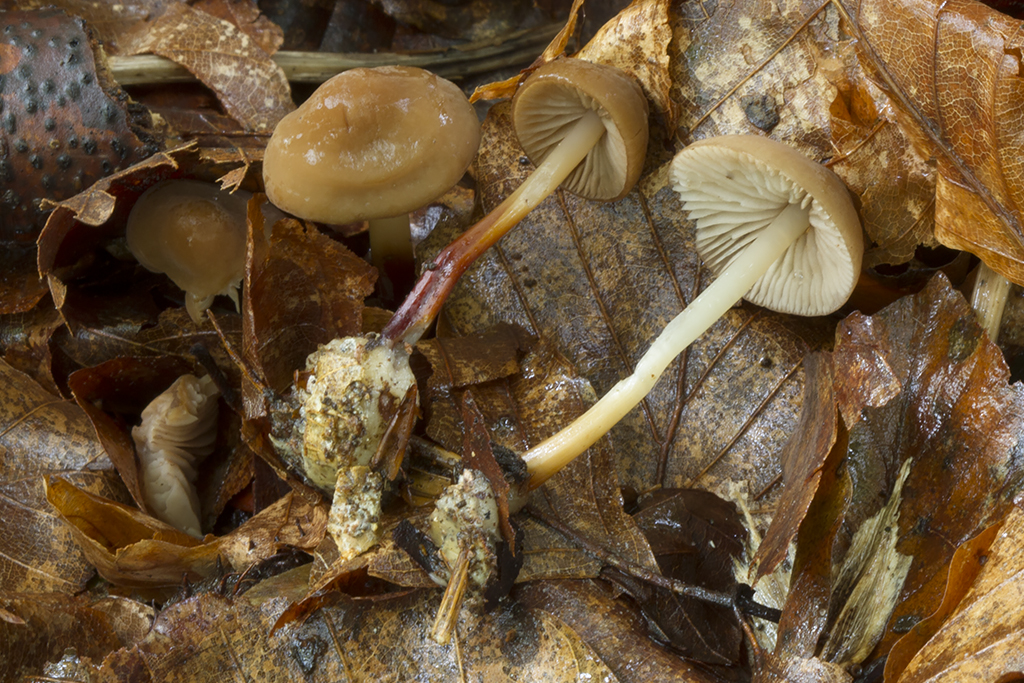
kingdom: Fungi
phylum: Basidiomycota
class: Agaricomycetes
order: Agaricales
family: Marasmiaceae
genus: Marasmius
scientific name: Marasmius cohaerens
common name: hornstokket bruskhat
